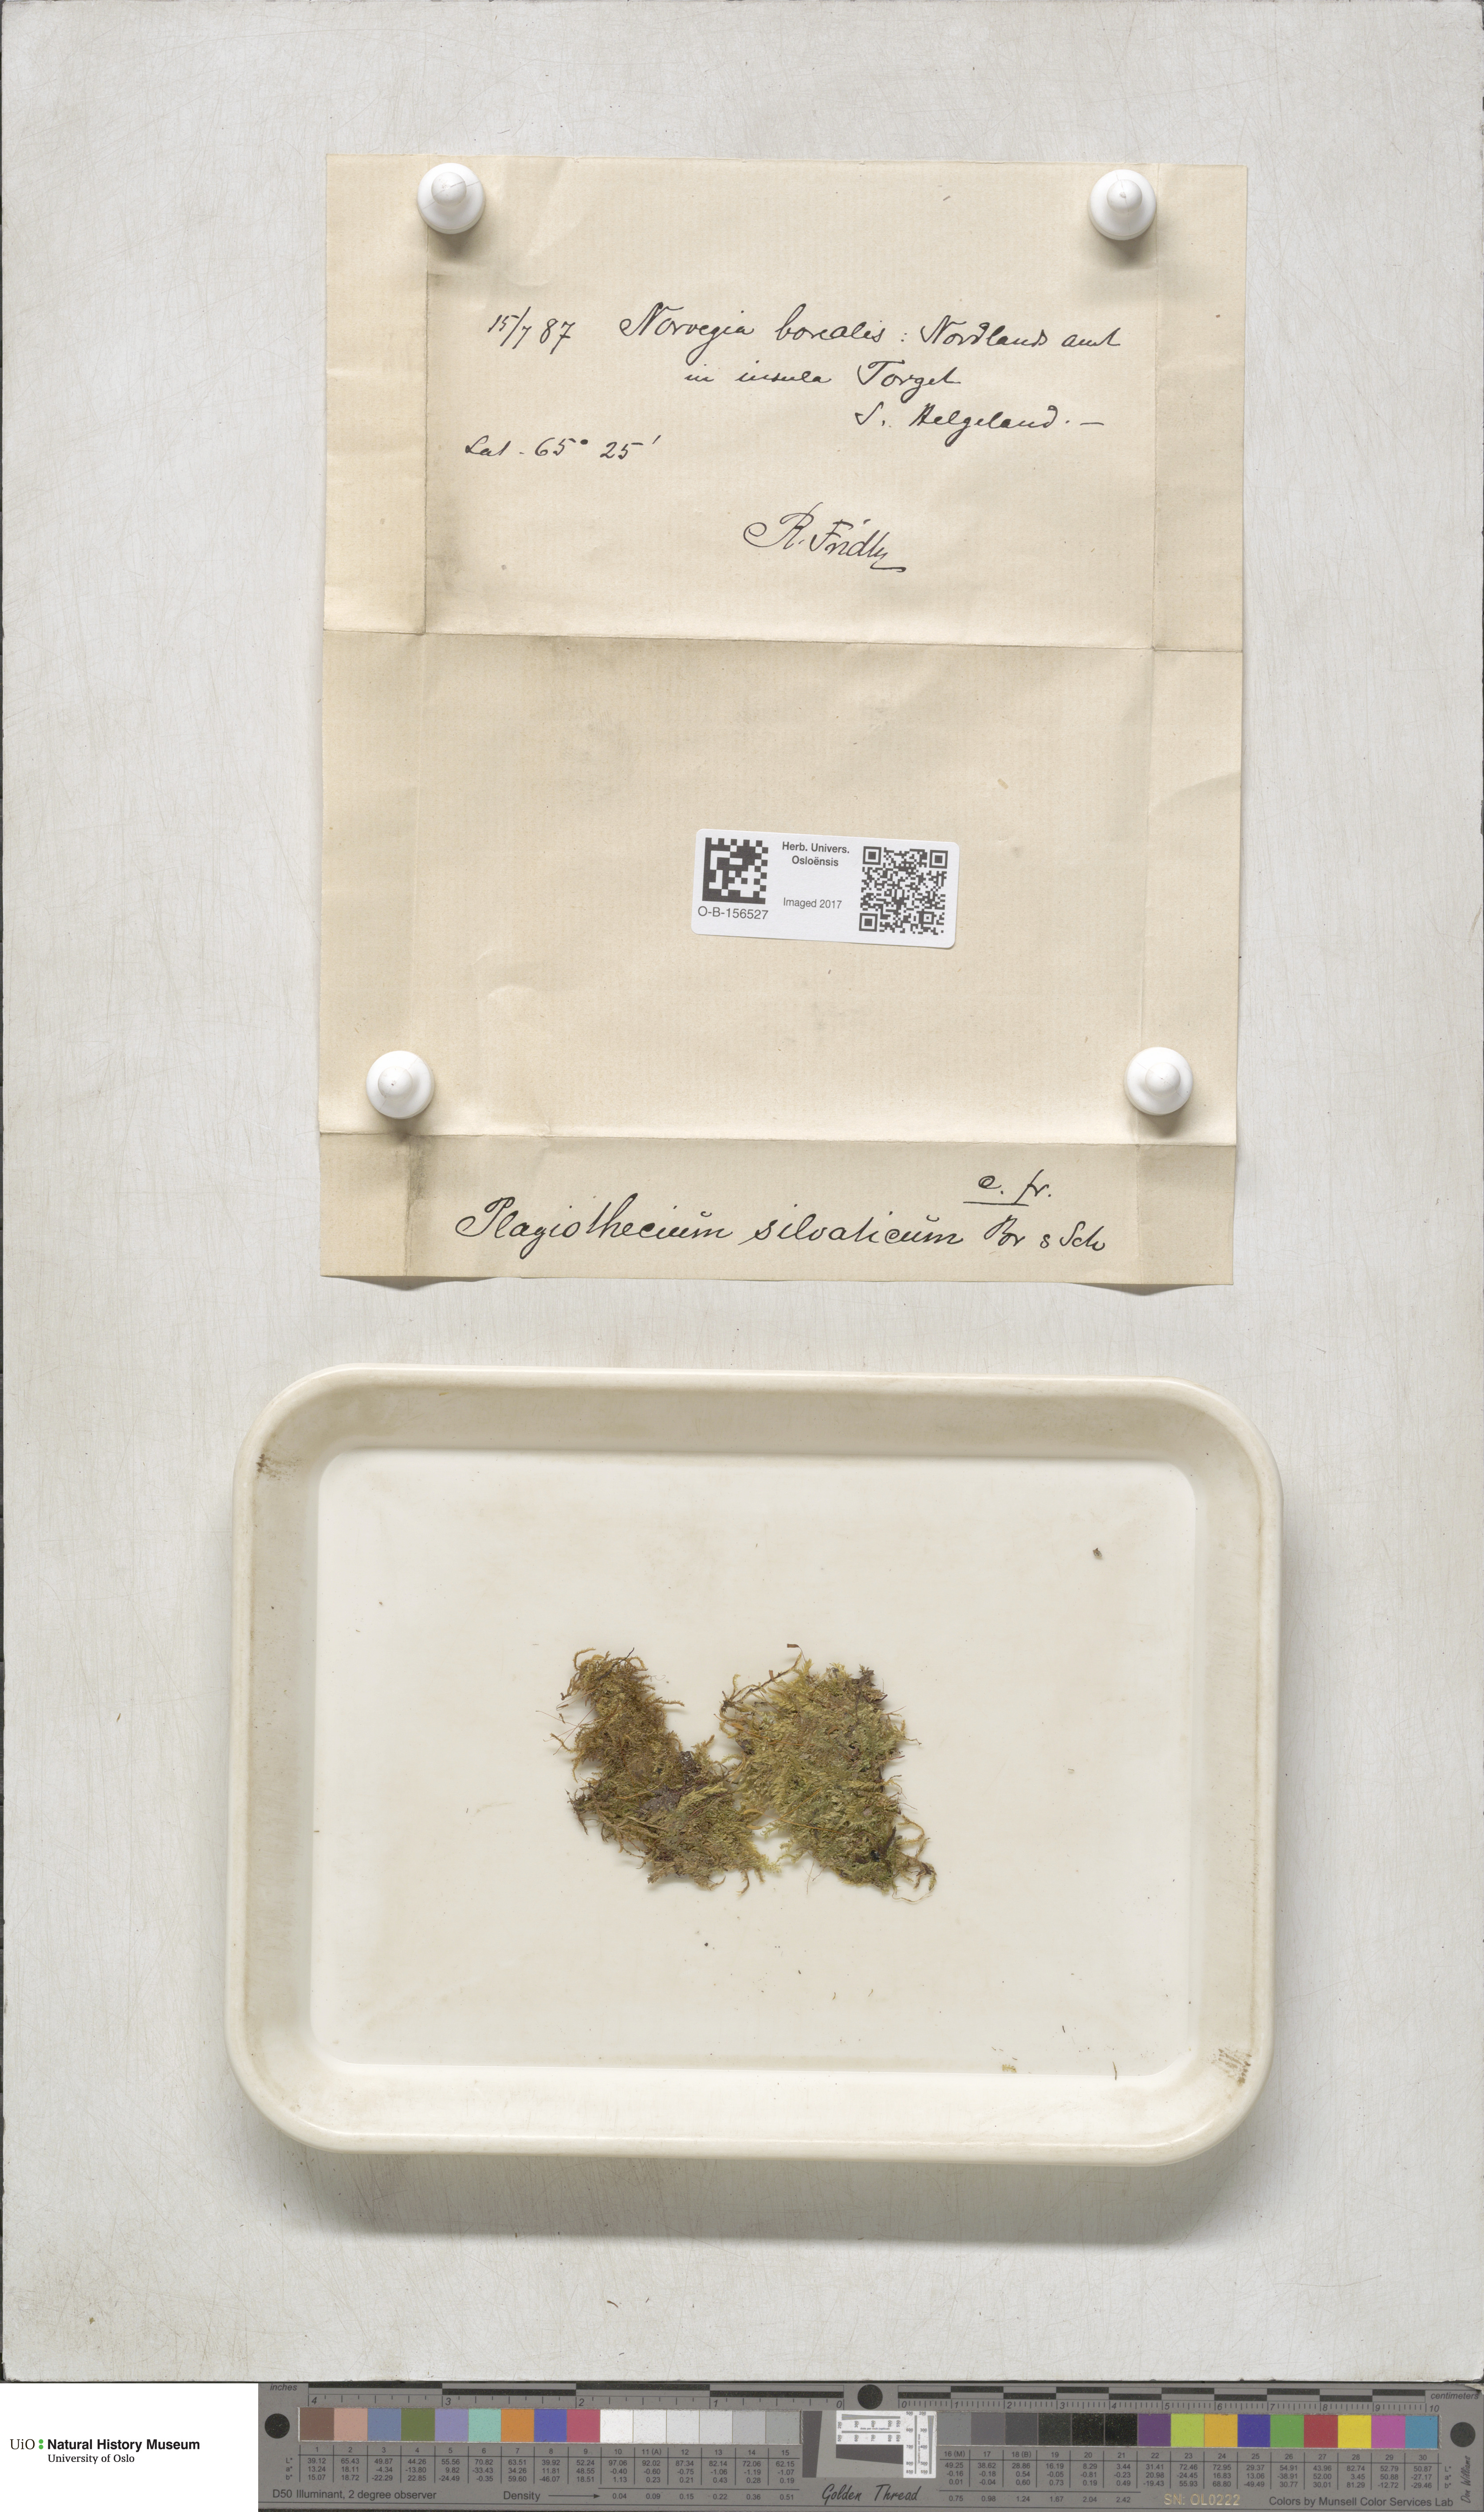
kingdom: Plantae
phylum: Bryophyta
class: Bryopsida
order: Hypnales
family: Plagiotheciaceae
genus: Plagiothecium
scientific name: Plagiothecium nemorale
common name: Woodsy silk-moss
